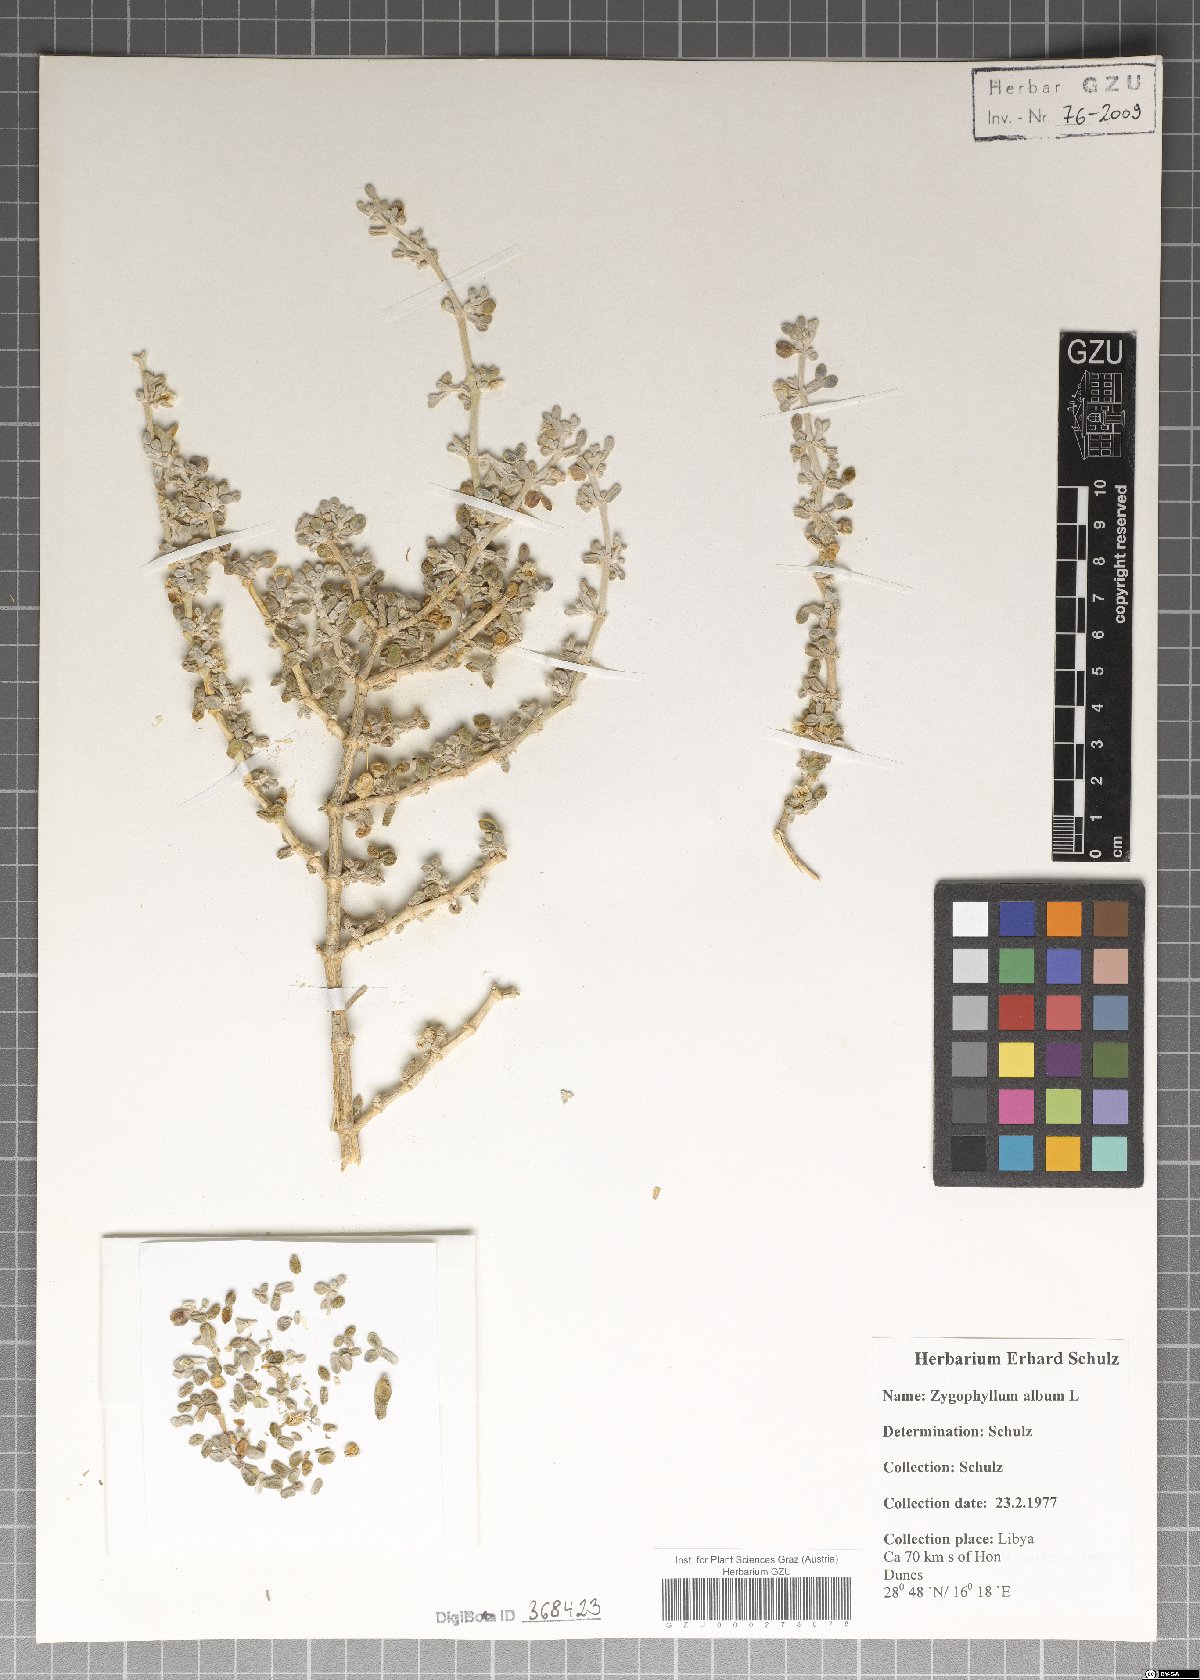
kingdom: Plantae
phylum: Tracheophyta
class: Magnoliopsida
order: Zygophyllales
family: Zygophyllaceae
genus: Tetraena
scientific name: Tetraena alba
